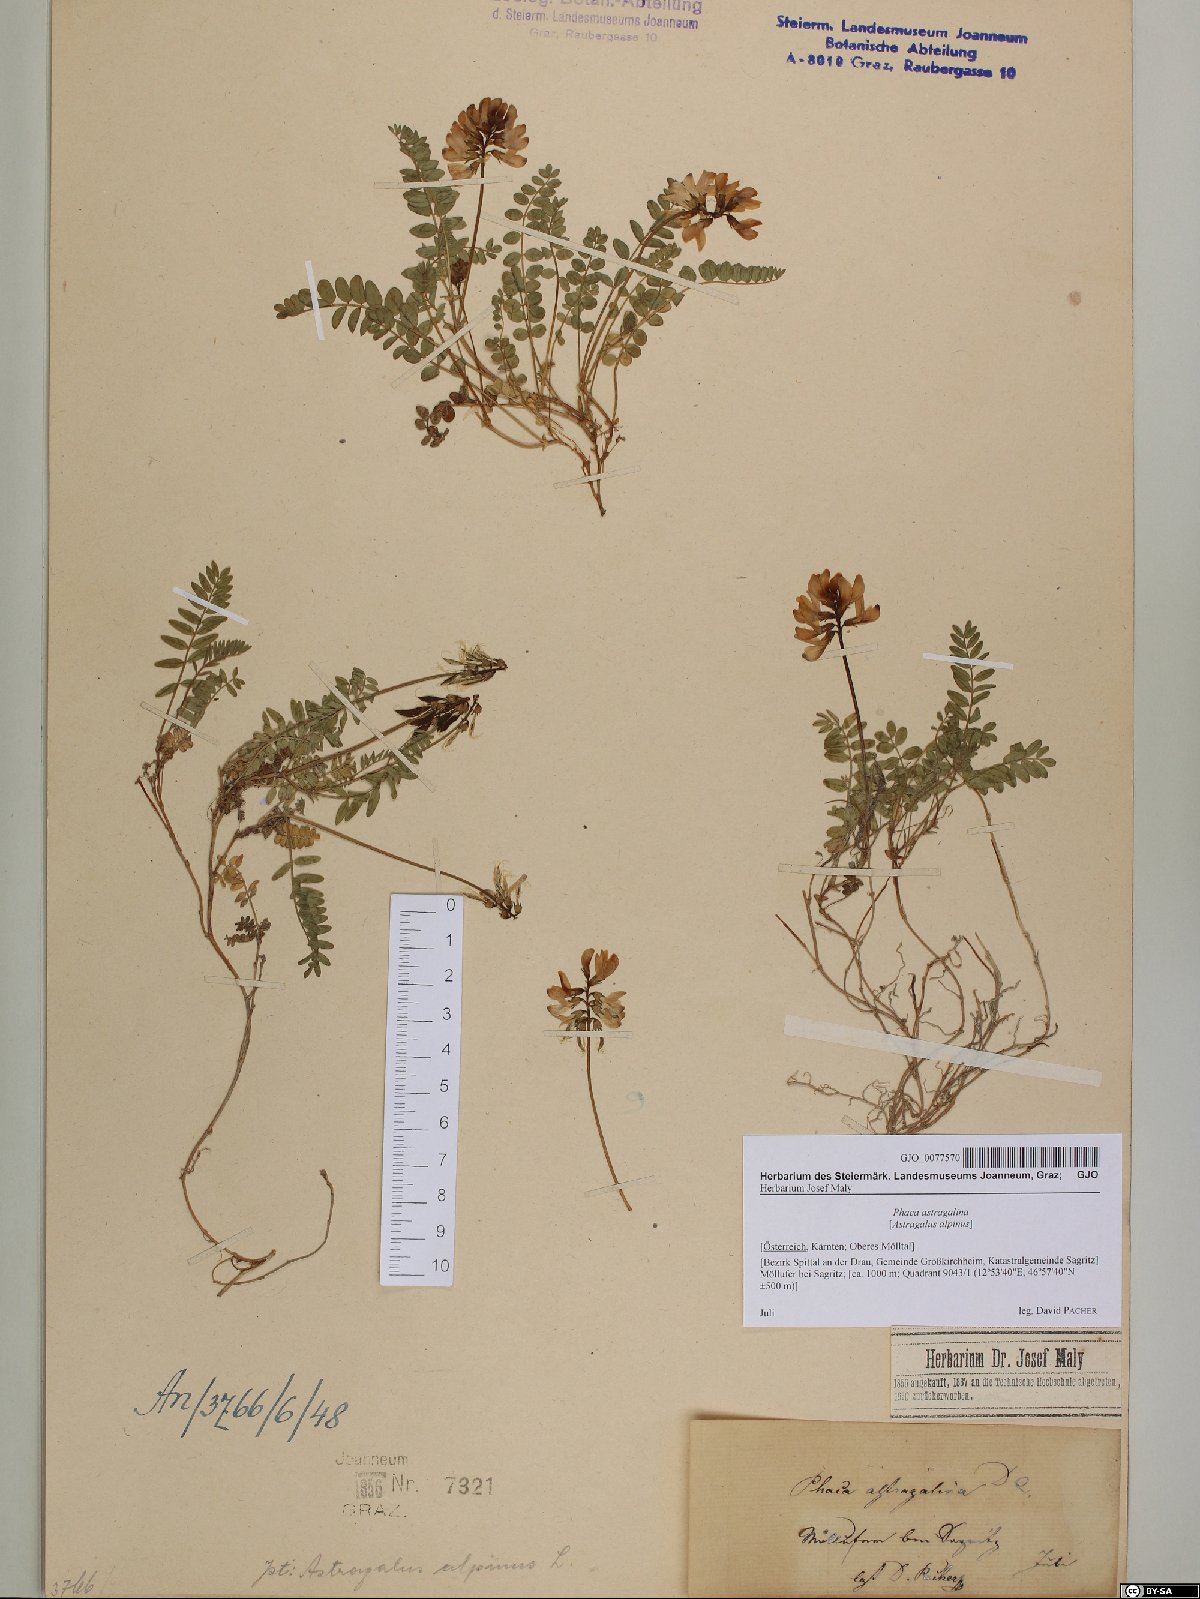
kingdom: Plantae
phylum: Tracheophyta
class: Magnoliopsida
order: Fabales
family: Fabaceae
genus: Astragalus
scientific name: Astragalus alpinus
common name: Alpine milk-vetch
